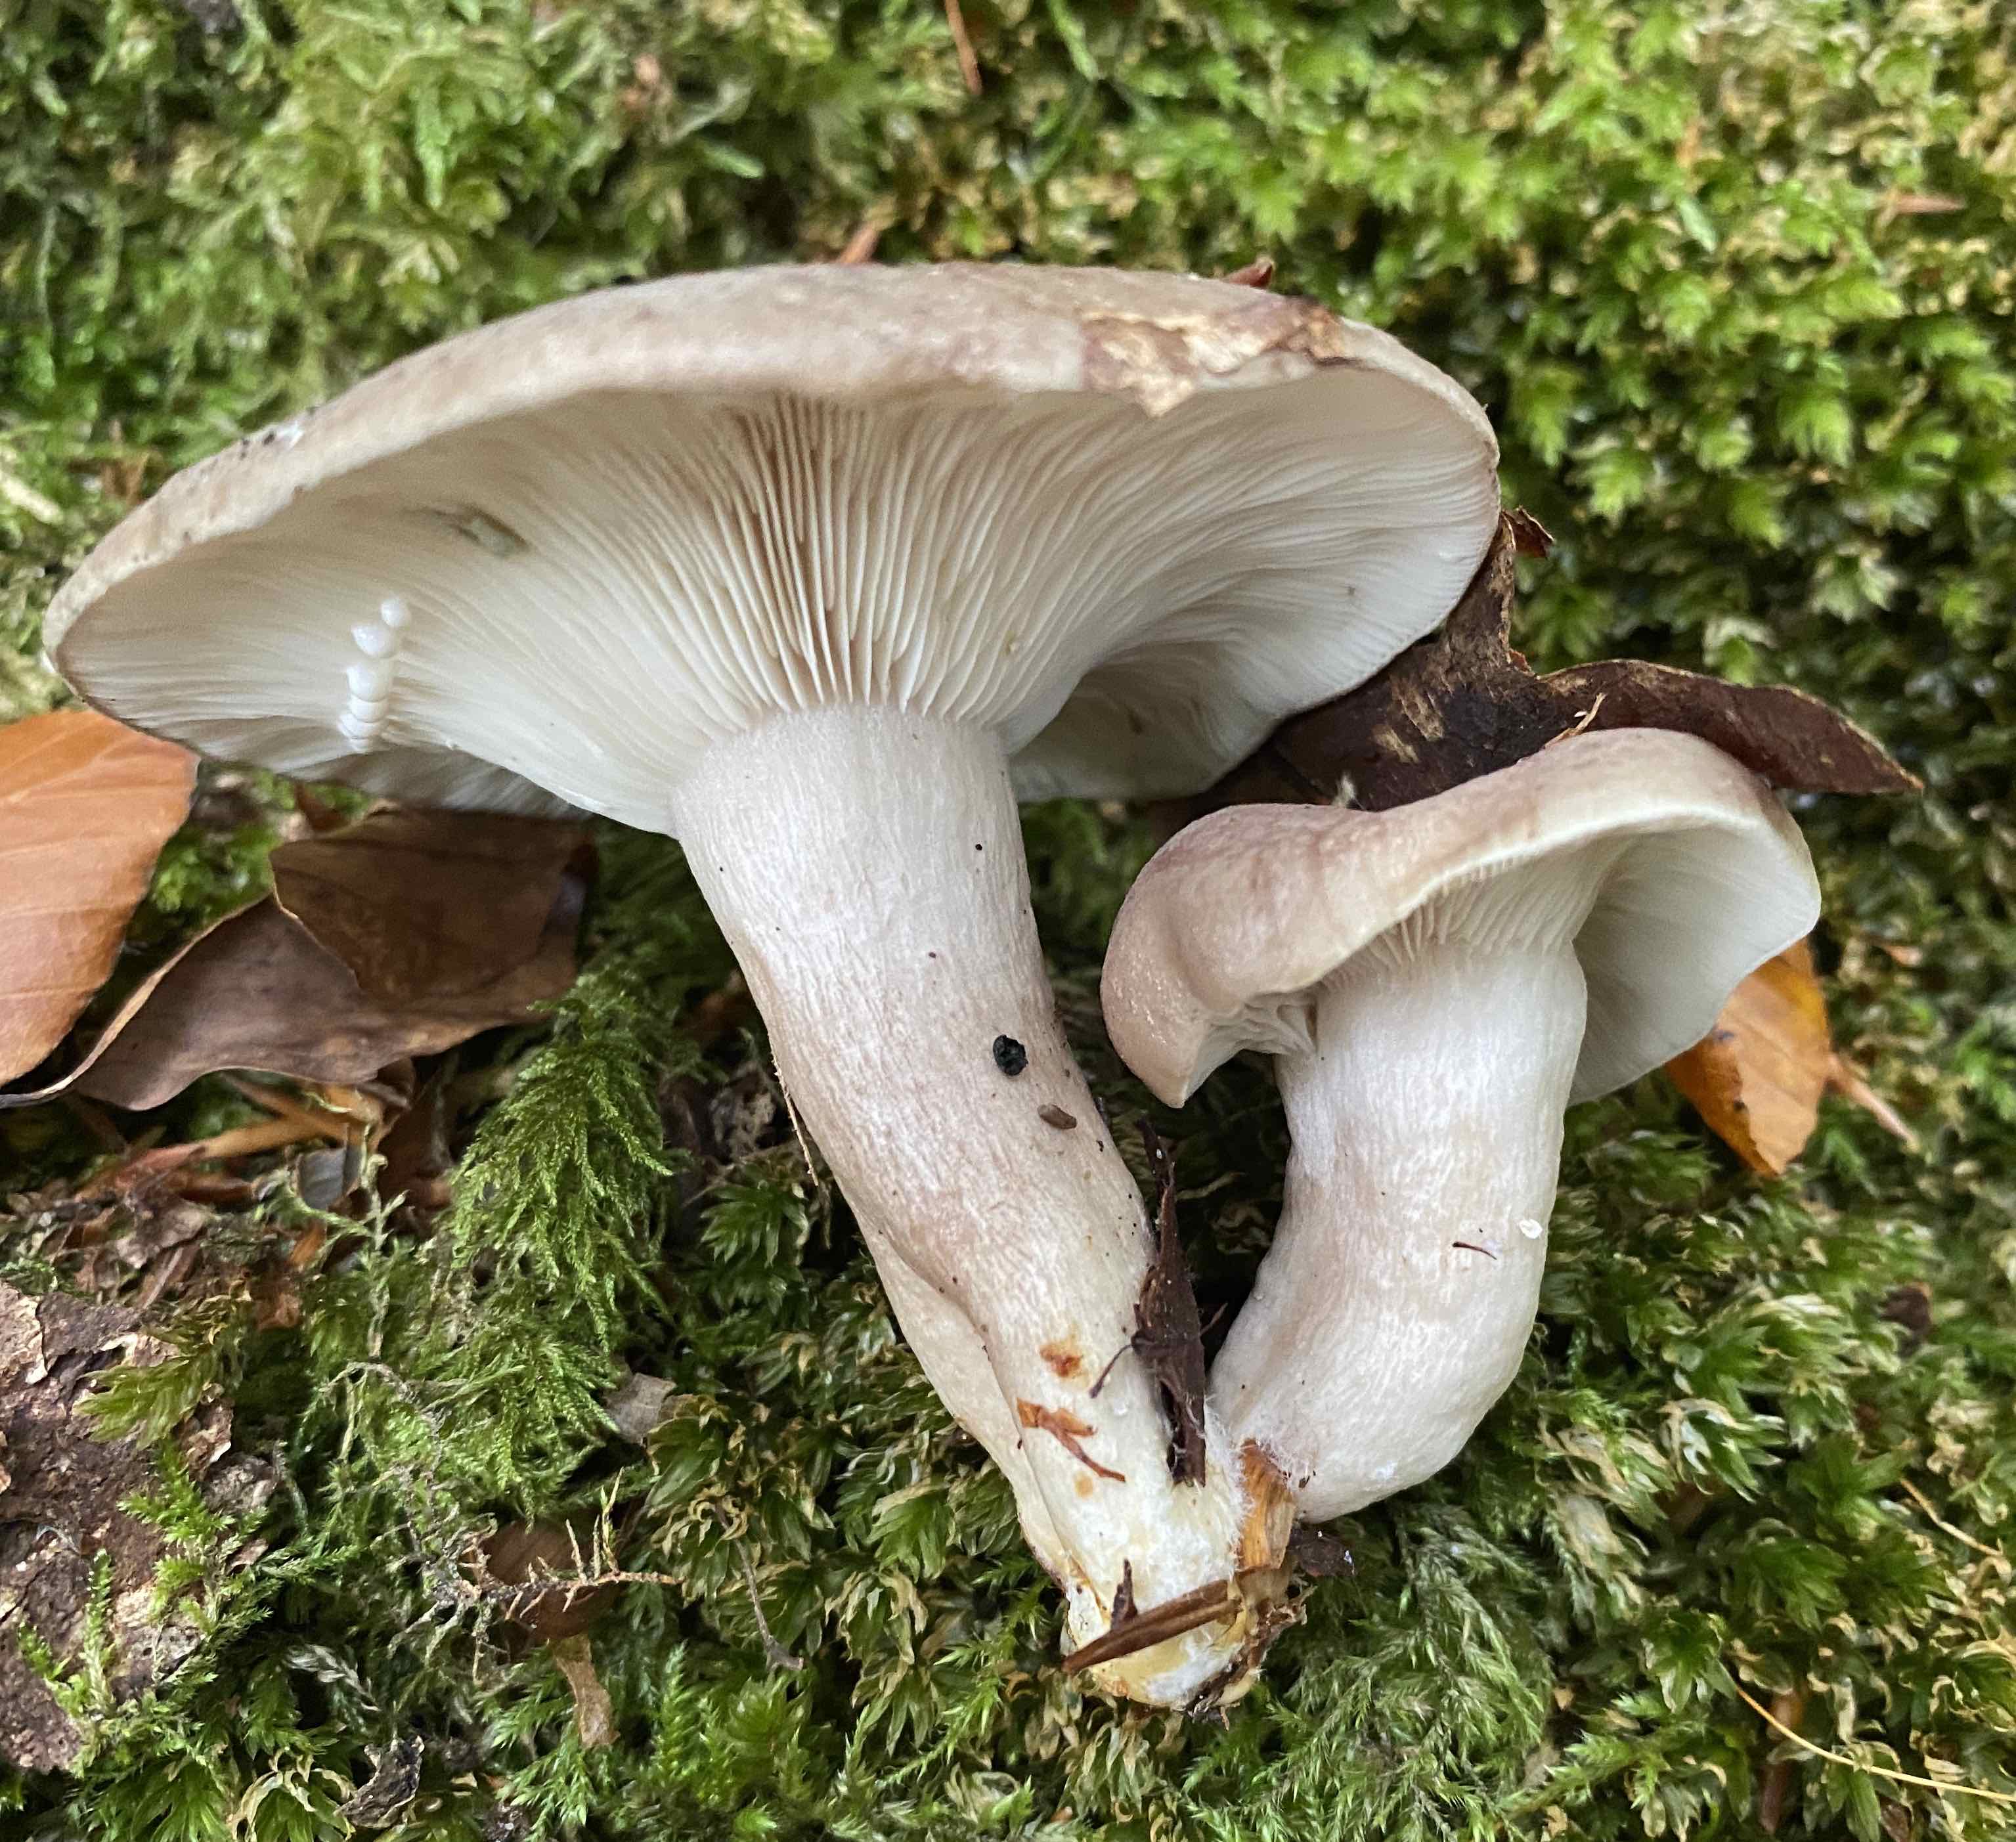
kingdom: Fungi
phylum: Basidiomycota
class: Agaricomycetes
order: Russulales
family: Russulaceae
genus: Lactarius
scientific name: Lactarius blennius
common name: dråbeplettet mælkehat
